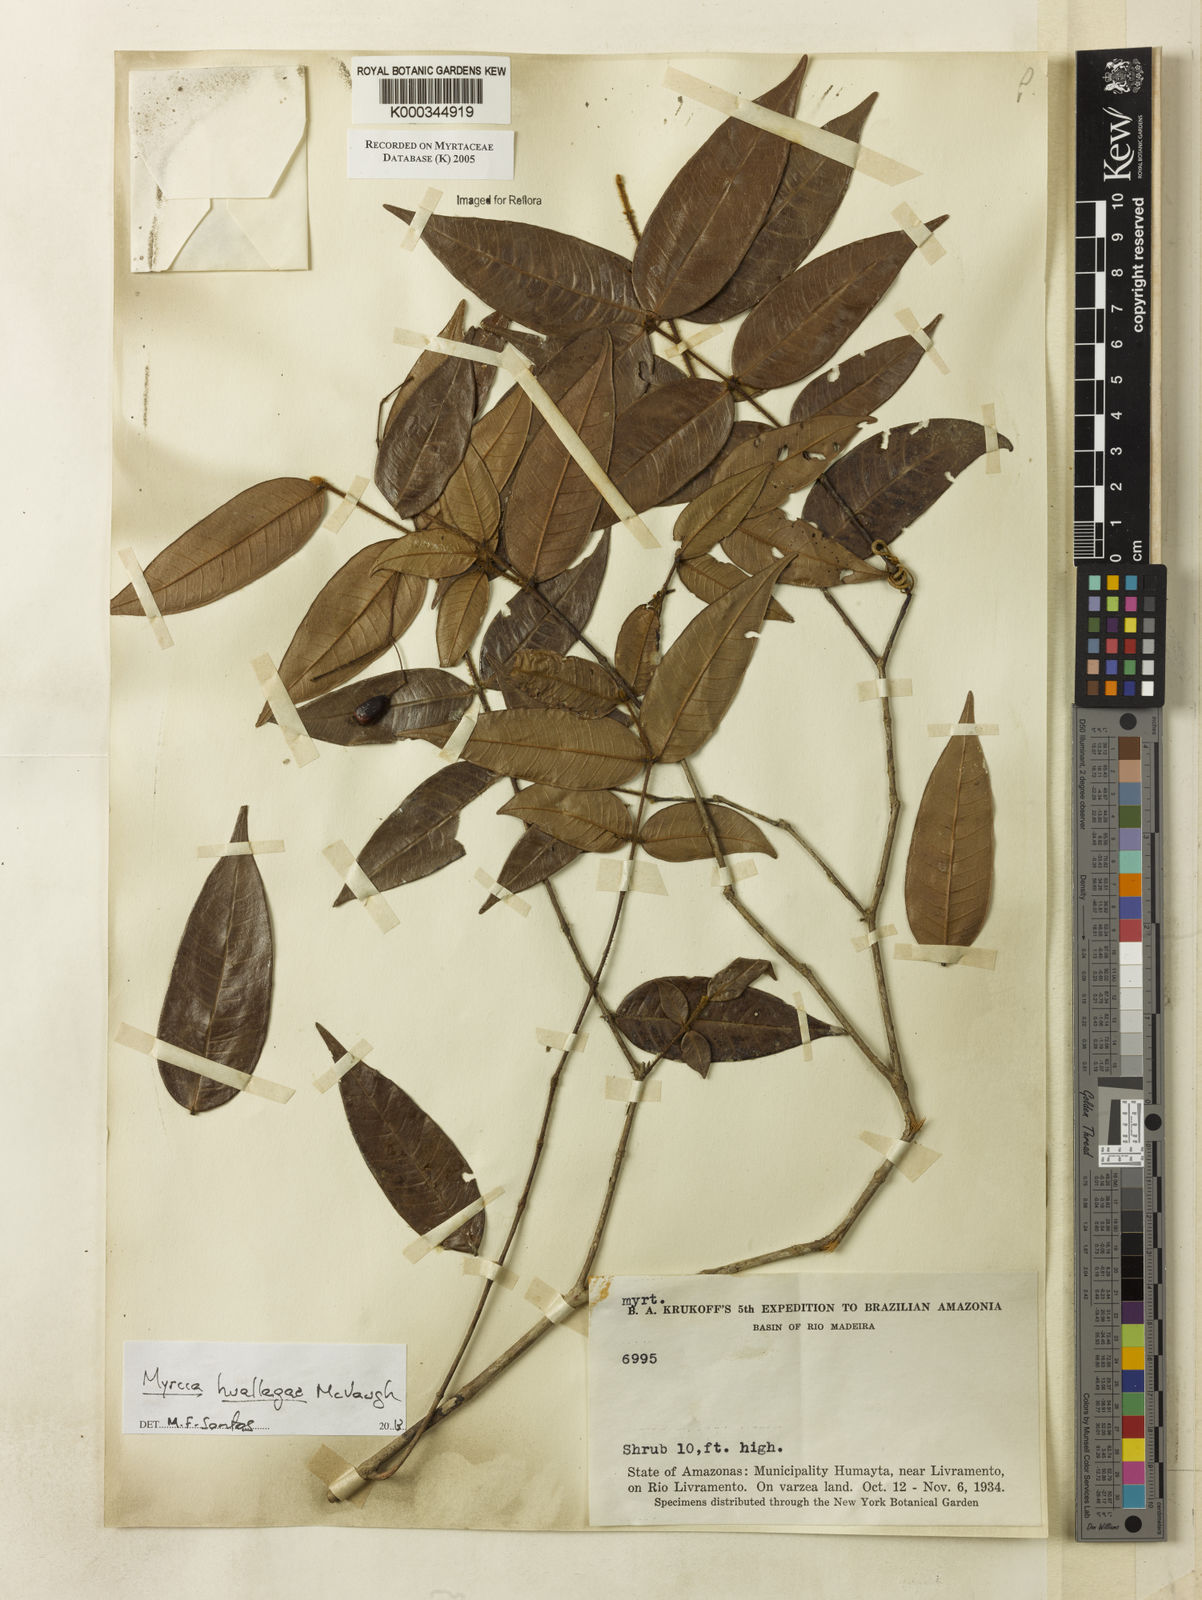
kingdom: Plantae
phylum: Tracheophyta
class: Magnoliopsida
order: Myrtales
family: Myrtaceae
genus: Myrcia
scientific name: Myrcia
